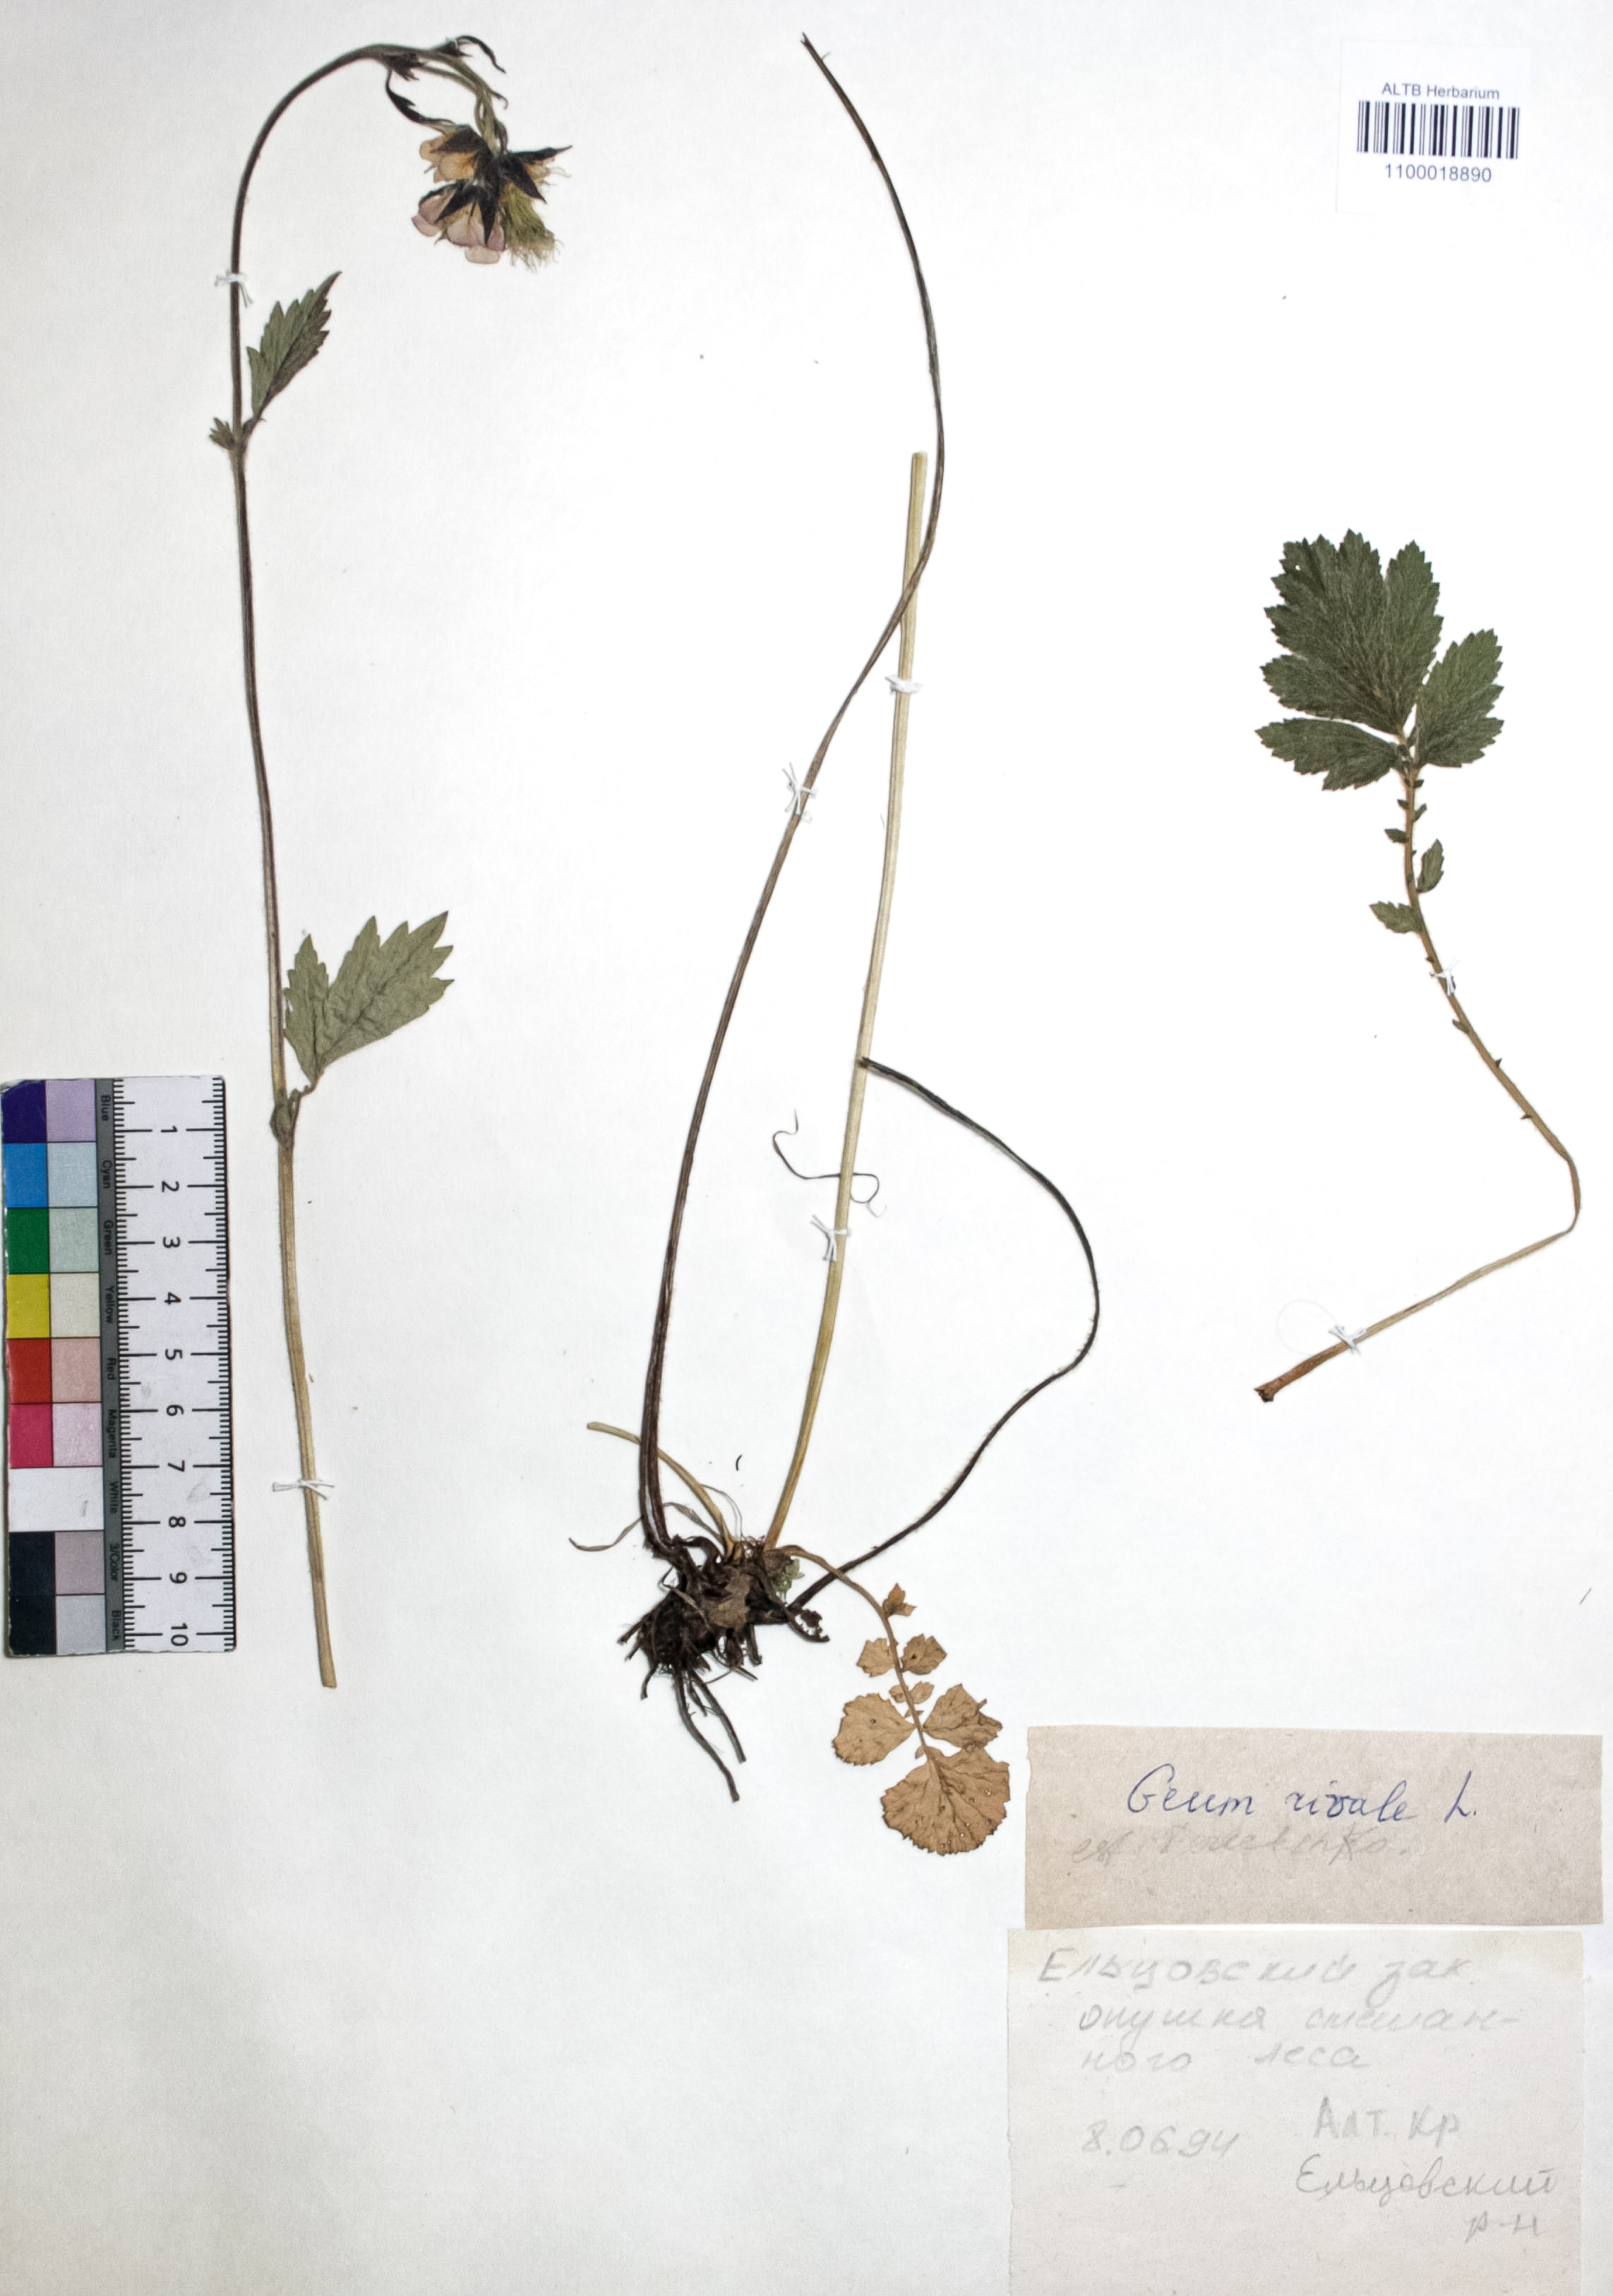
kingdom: Plantae
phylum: Tracheophyta
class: Magnoliopsida
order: Rosales
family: Rosaceae
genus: Geum
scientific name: Geum rivale
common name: Water avens
